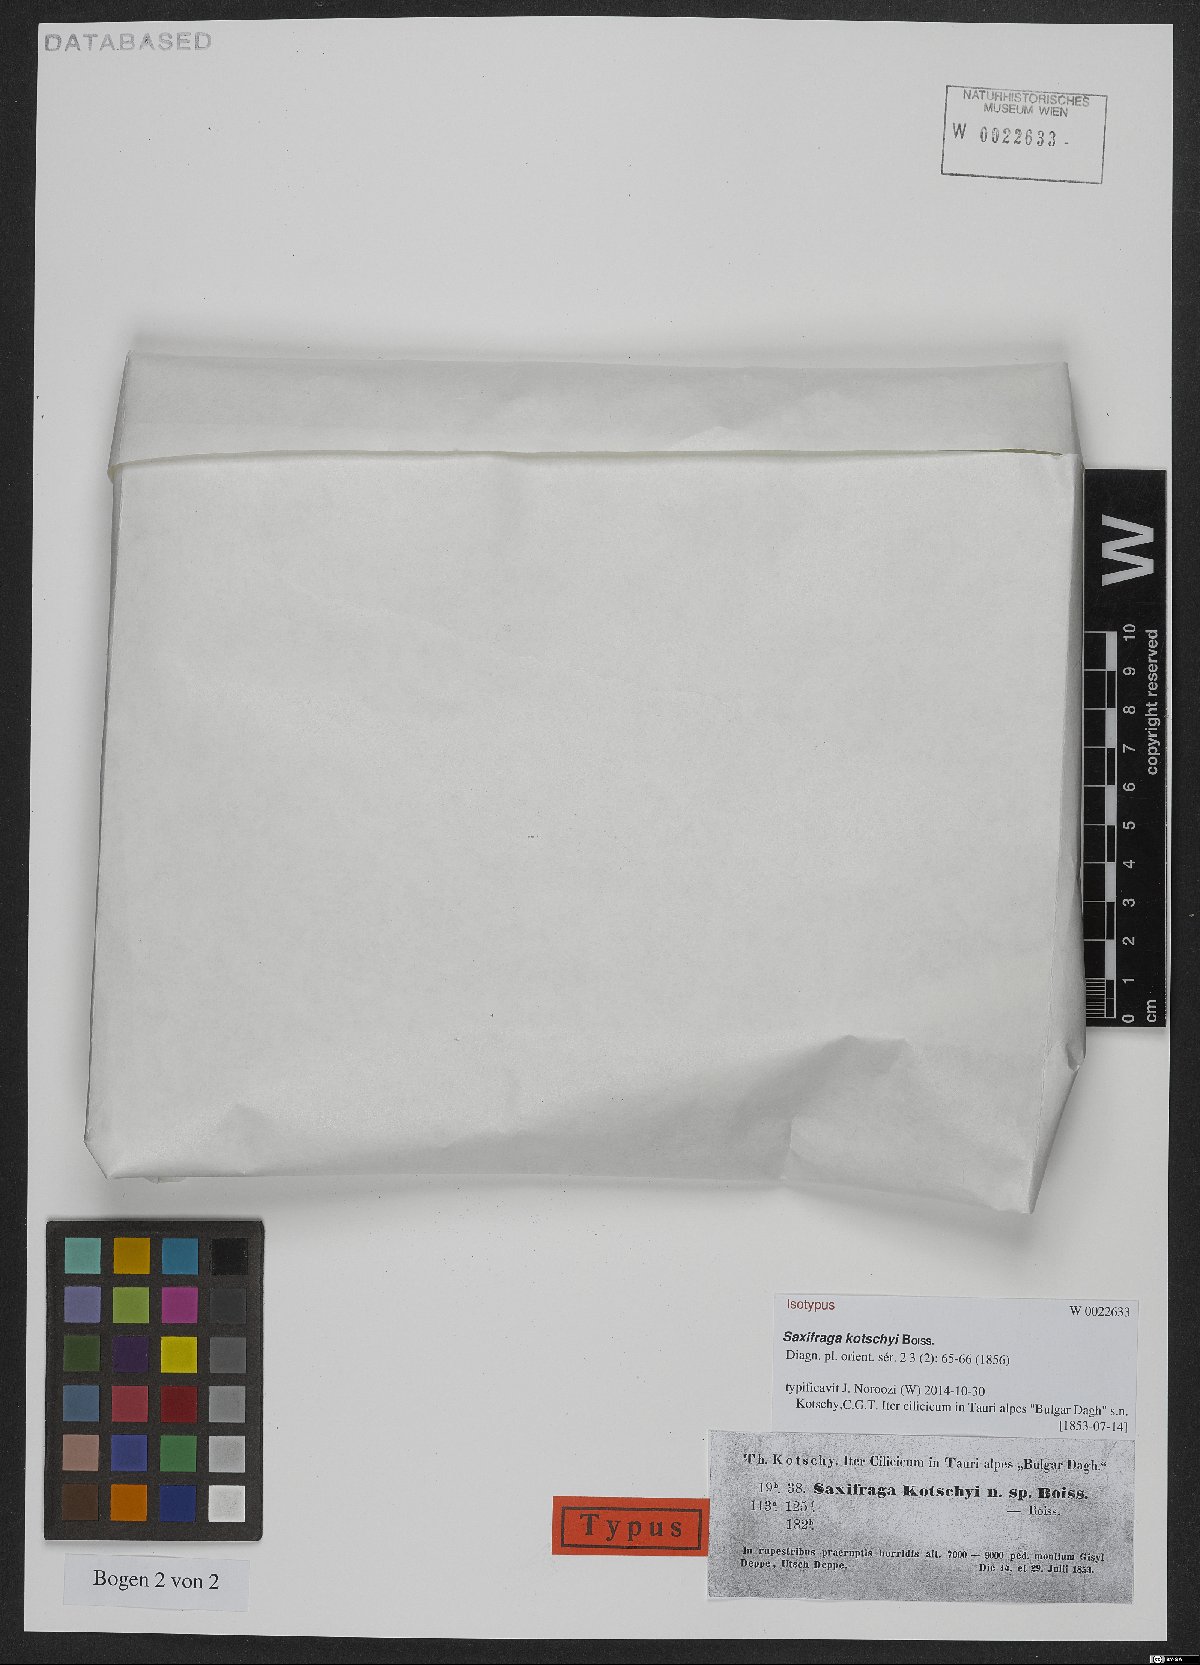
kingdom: Plantae
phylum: Tracheophyta
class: Magnoliopsida
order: Saxifragales
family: Saxifragaceae
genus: Saxifraga
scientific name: Saxifraga kotschyi
